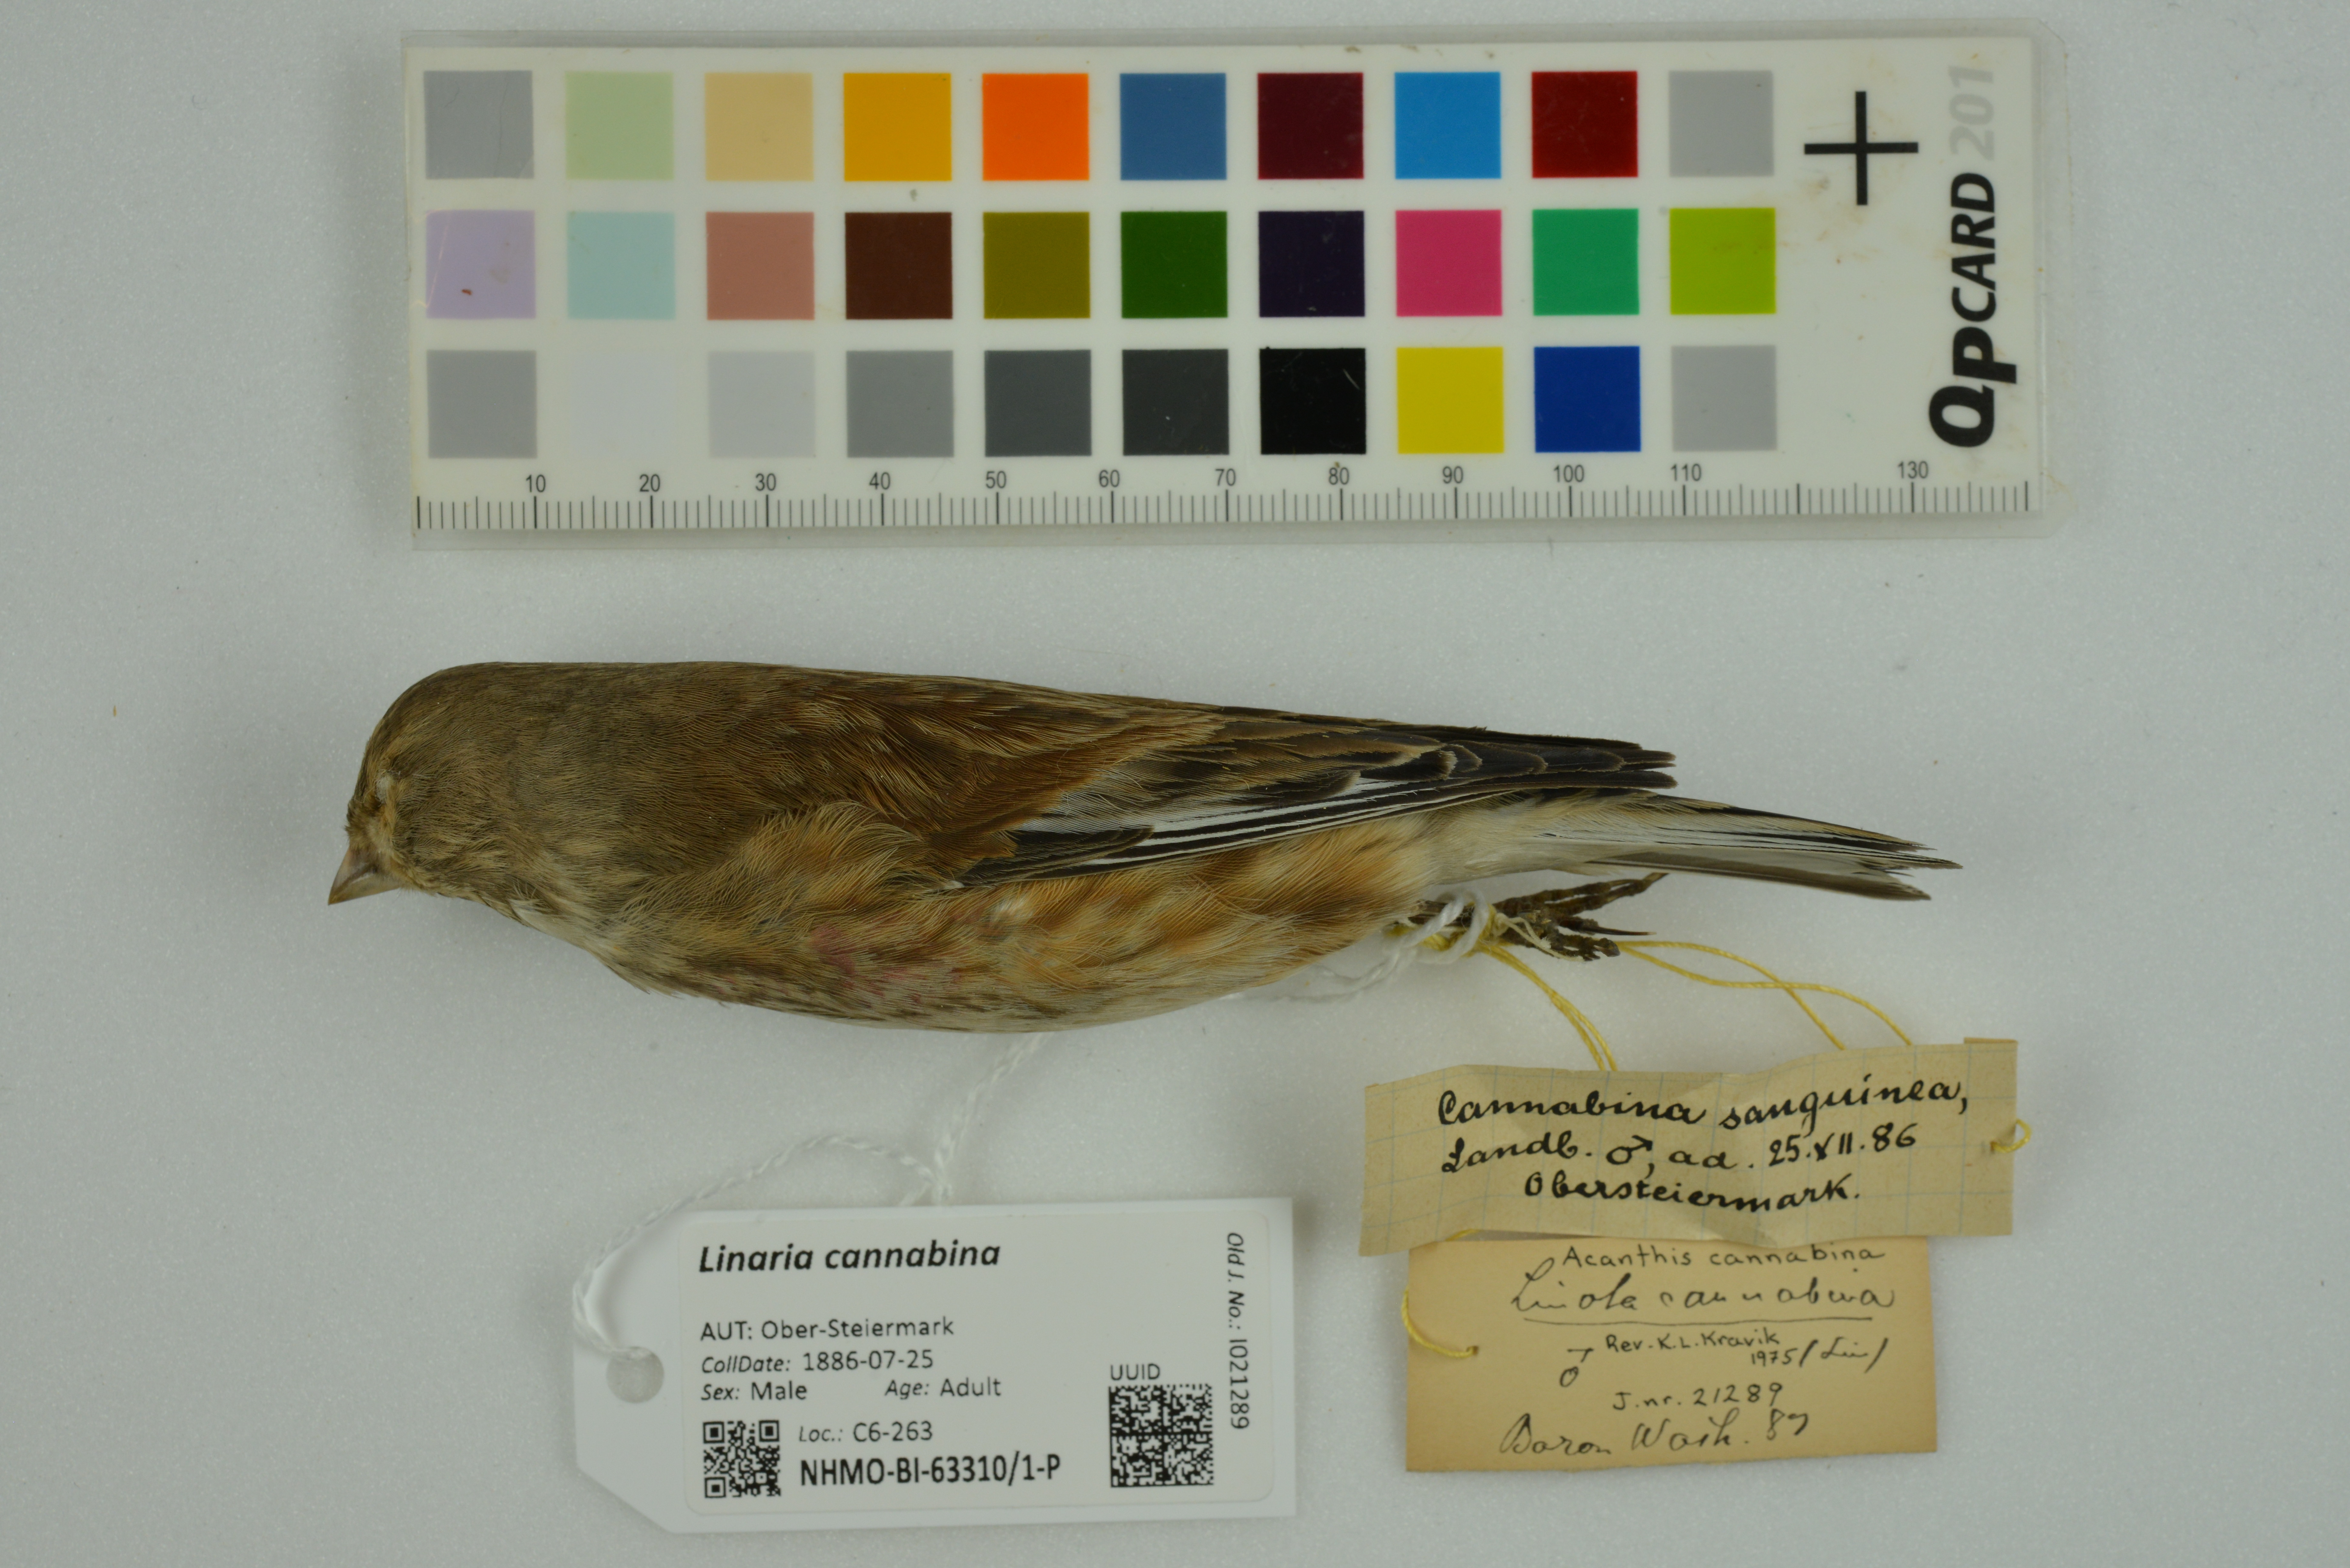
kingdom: Animalia
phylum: Chordata
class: Aves
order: Passeriformes
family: Fringillidae
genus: Linaria
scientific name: Linaria cannabina
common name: Common linnet
